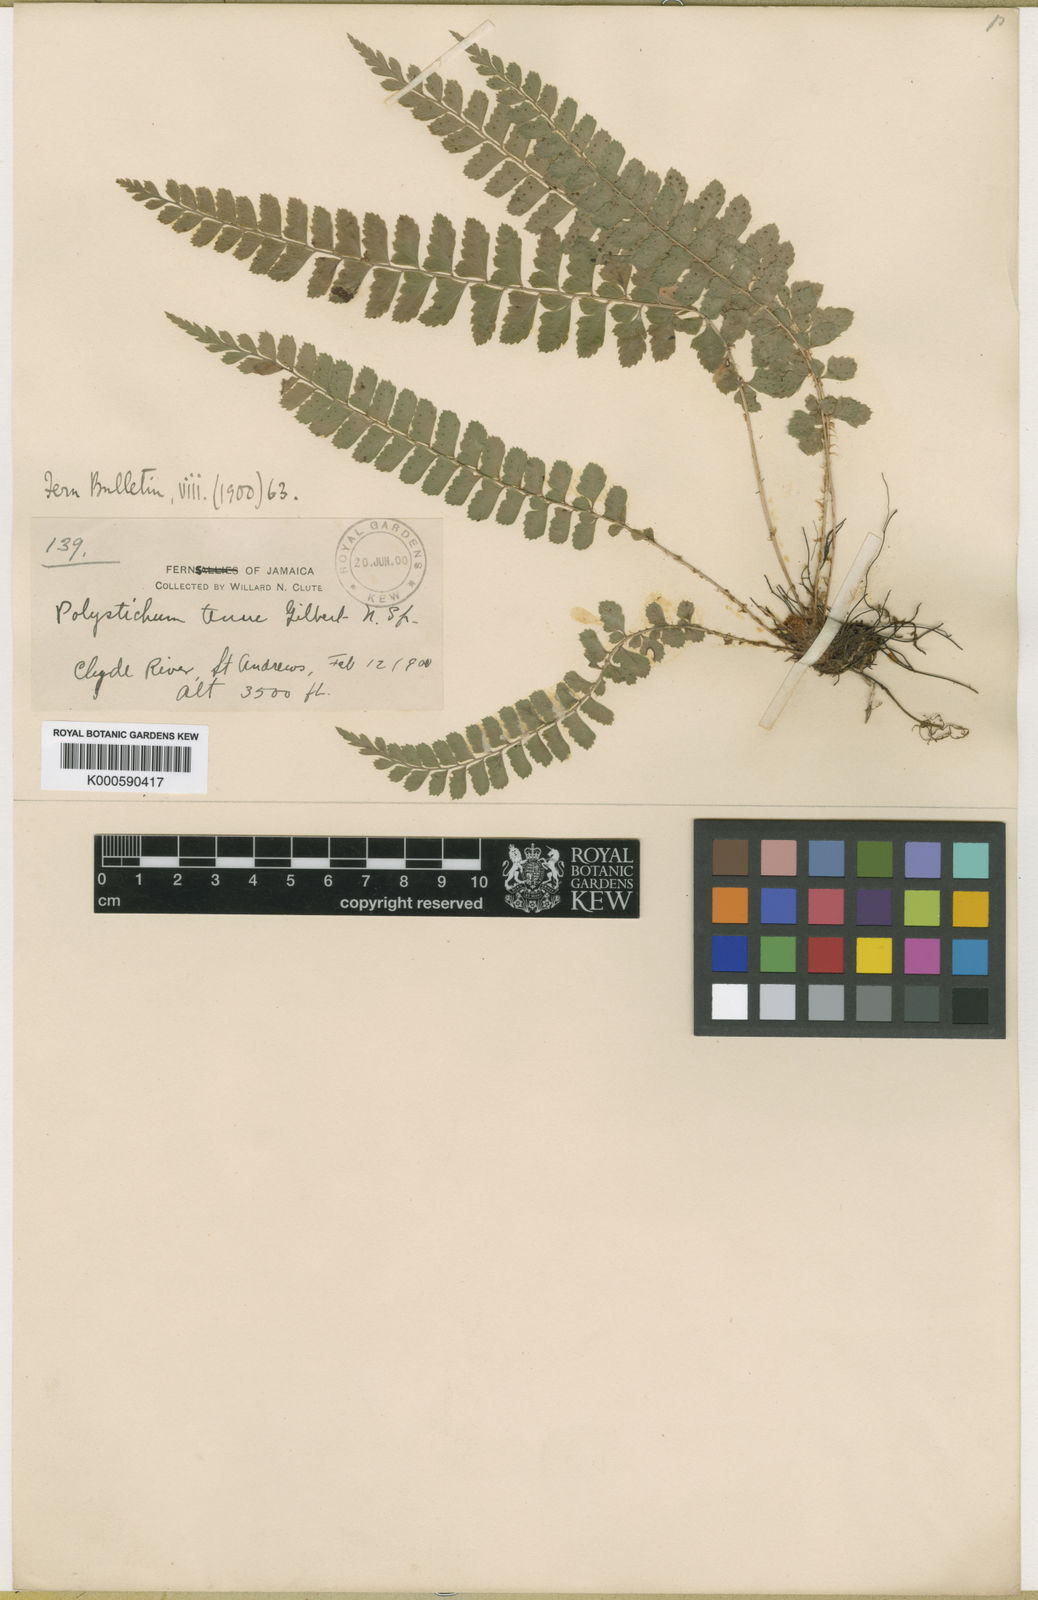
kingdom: Plantae
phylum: Tracheophyta
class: Polypodiopsida
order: Polypodiales
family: Dryopteridaceae
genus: Polystichum
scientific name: Polystichum platyphyllum
